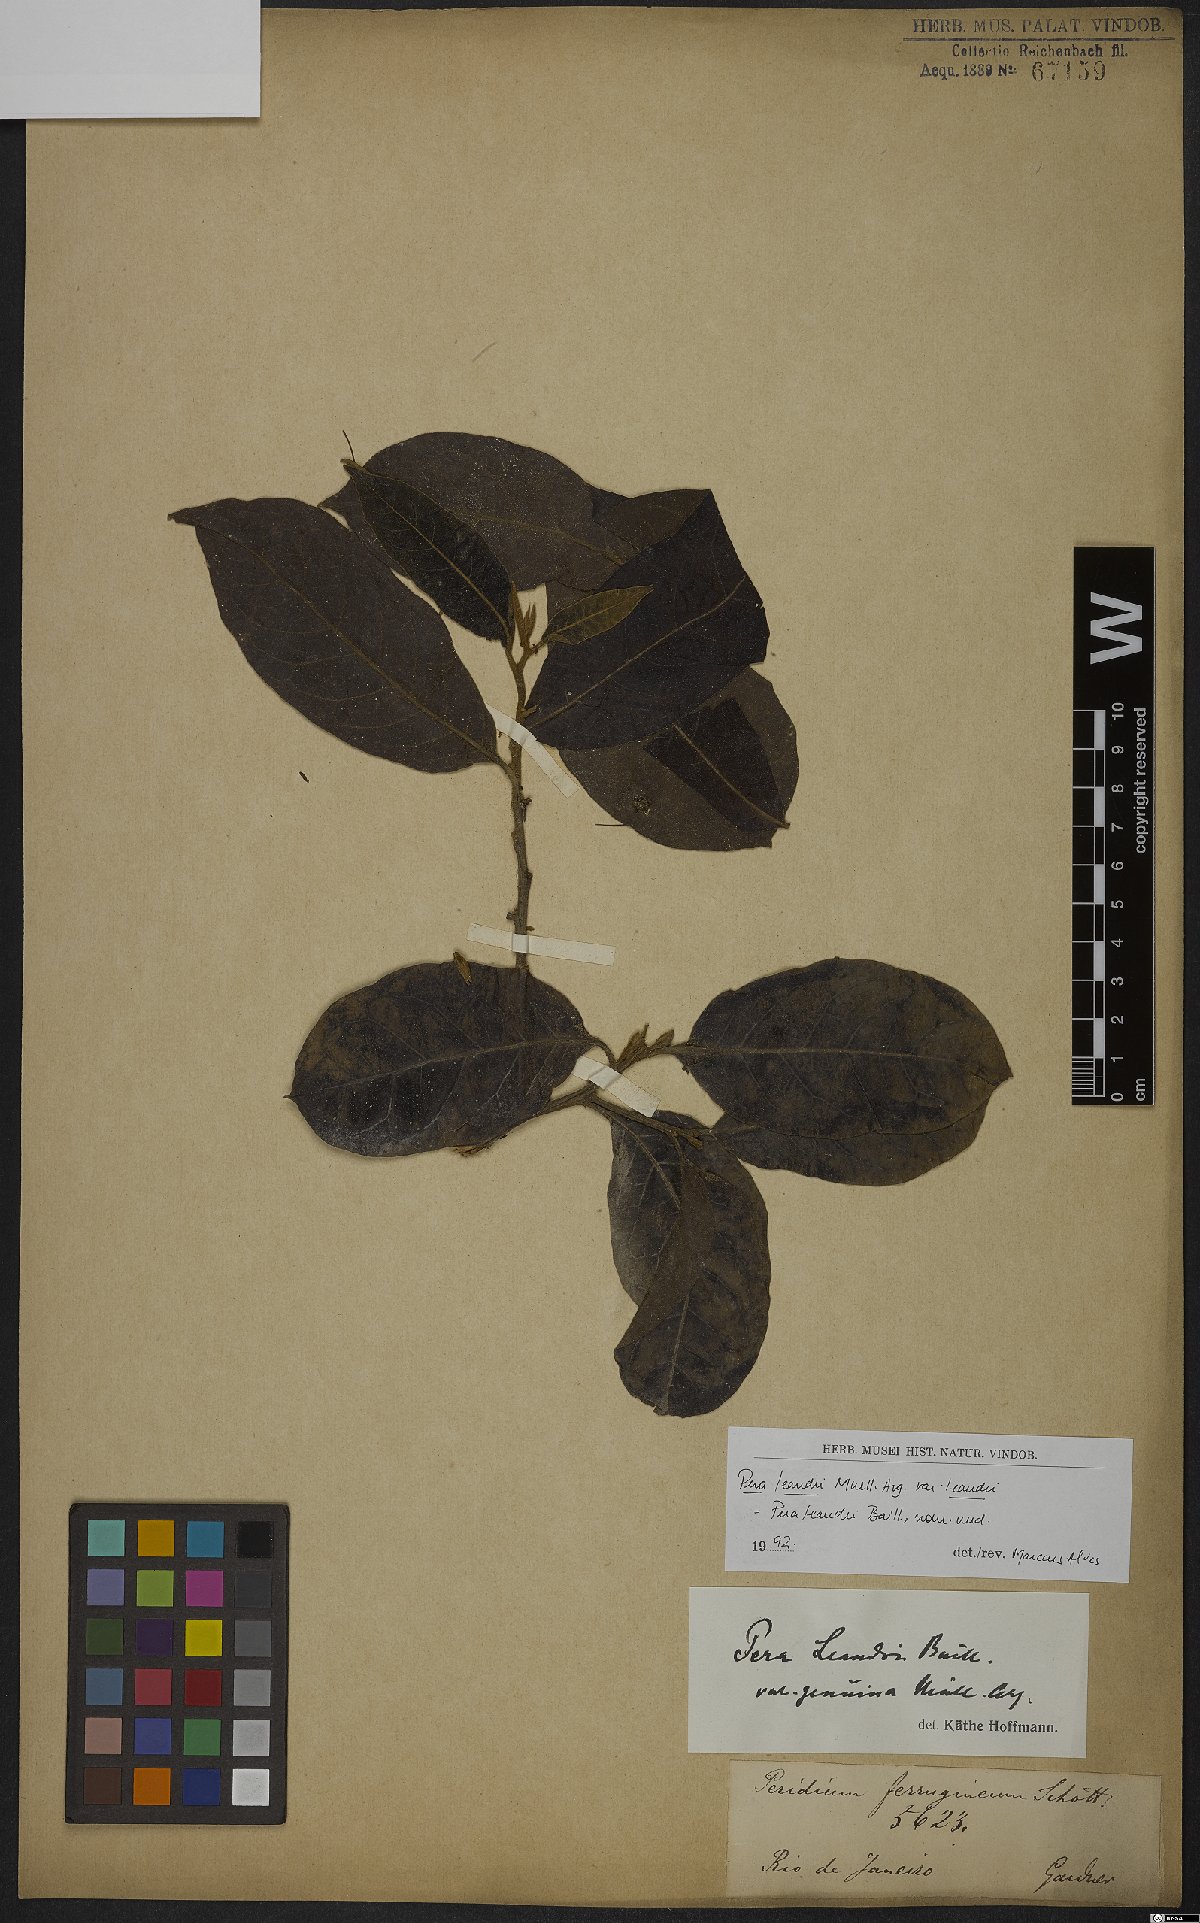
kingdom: Plantae
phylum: Tracheophyta
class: Magnoliopsida
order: Malpighiales
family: Peraceae
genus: Pera
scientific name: Pera heteranthera
